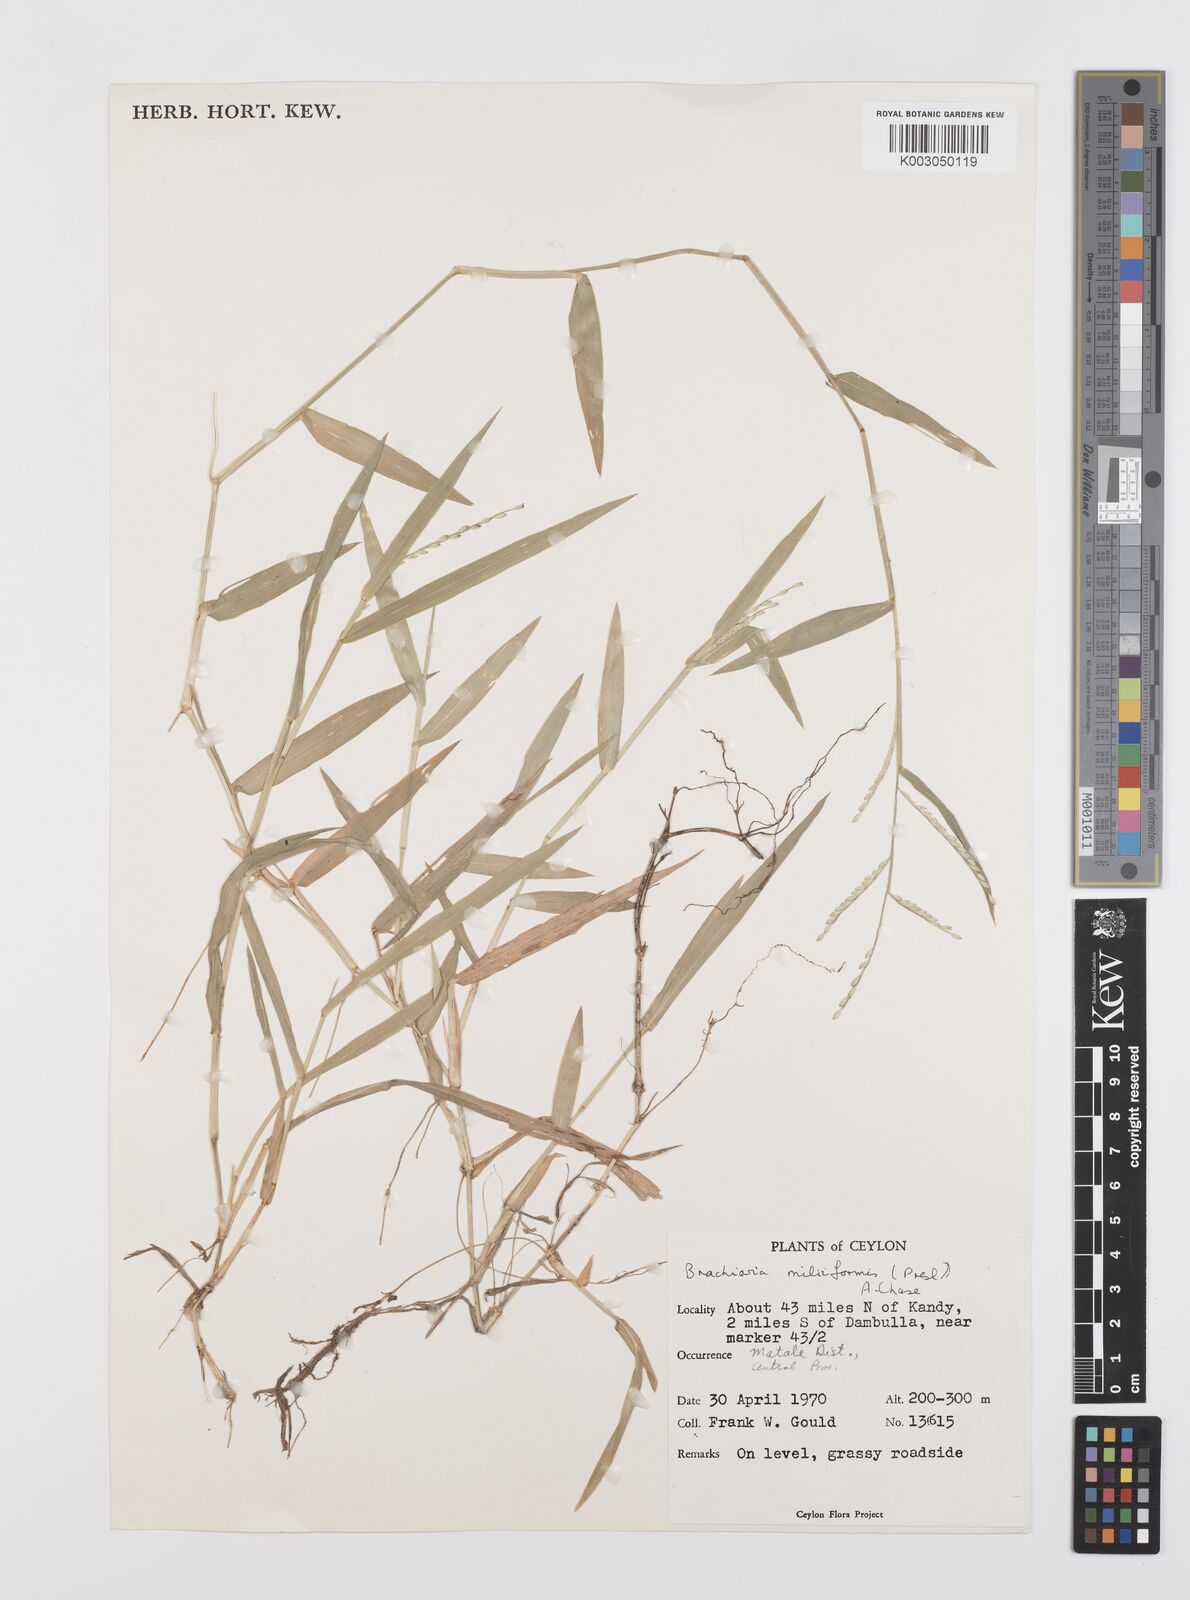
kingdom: Plantae
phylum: Tracheophyta
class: Liliopsida
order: Poales
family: Poaceae
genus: Urochloa
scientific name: Urochloa subquadripara
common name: Armgrass millet
